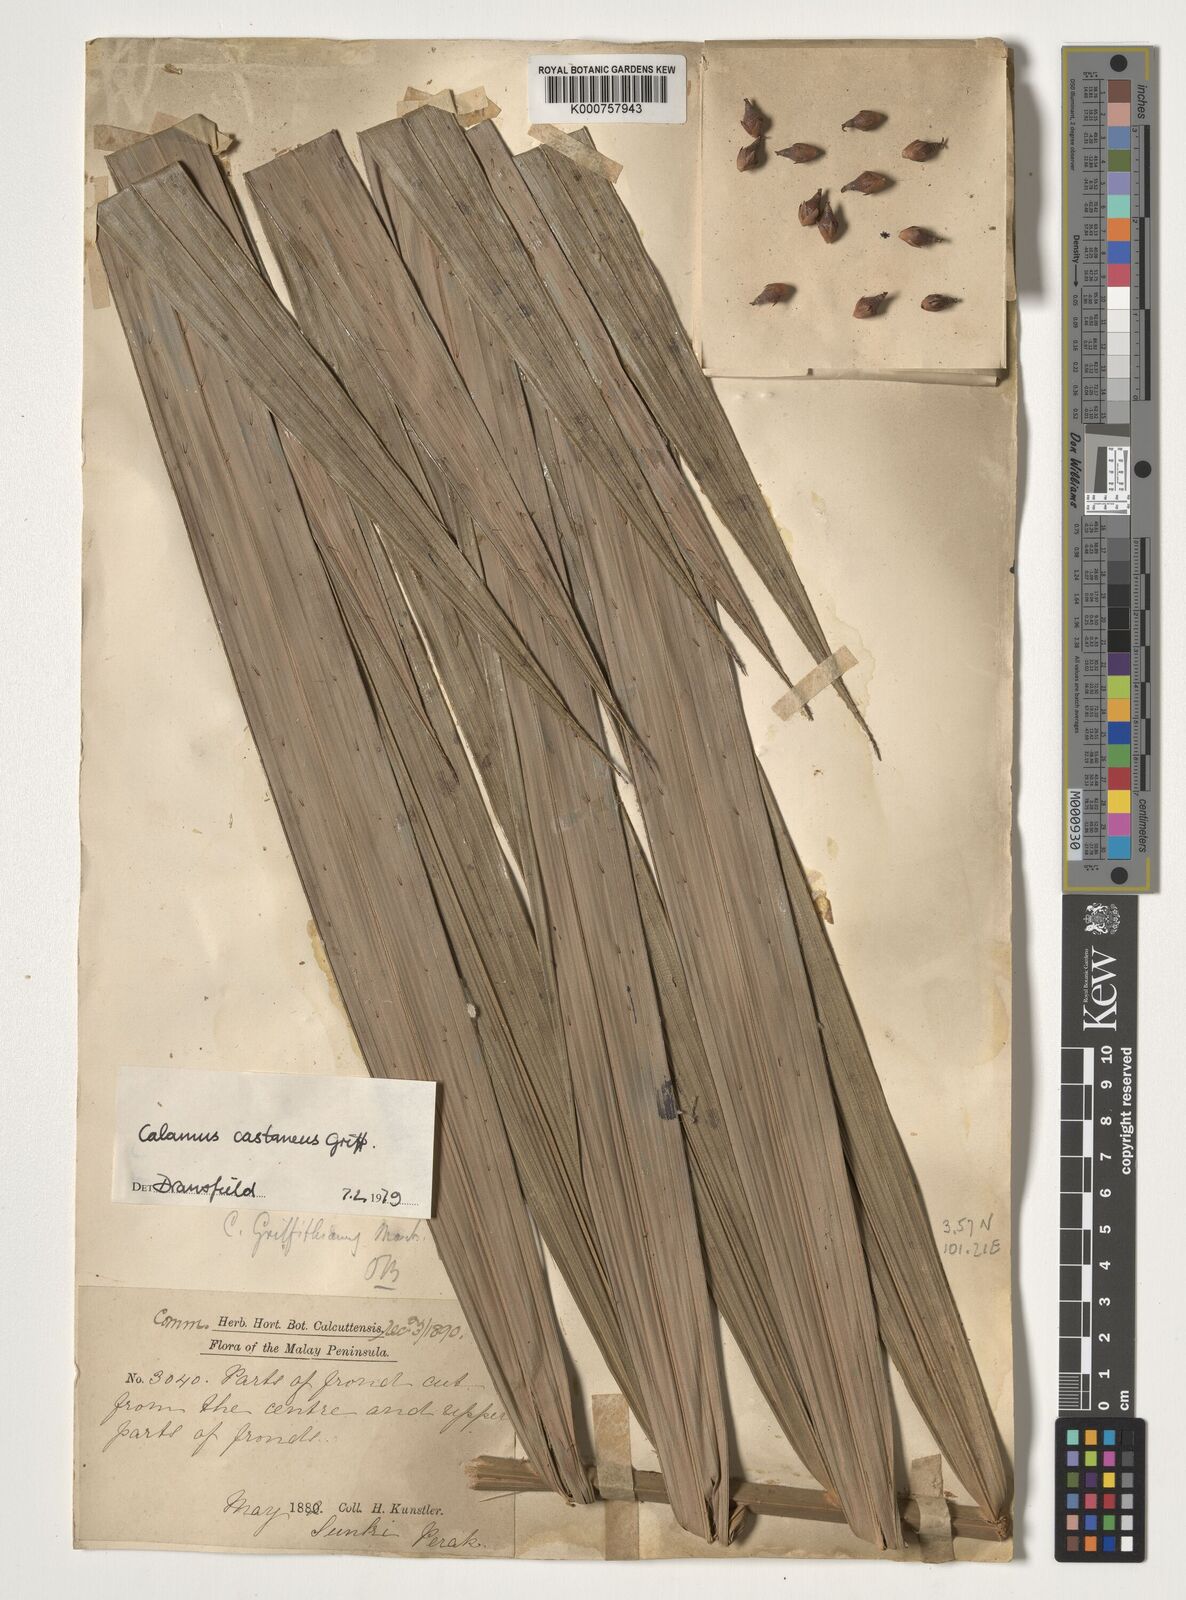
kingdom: Plantae
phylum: Tracheophyta
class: Liliopsida
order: Arecales
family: Arecaceae
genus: Calamus
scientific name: Calamus castaneus
